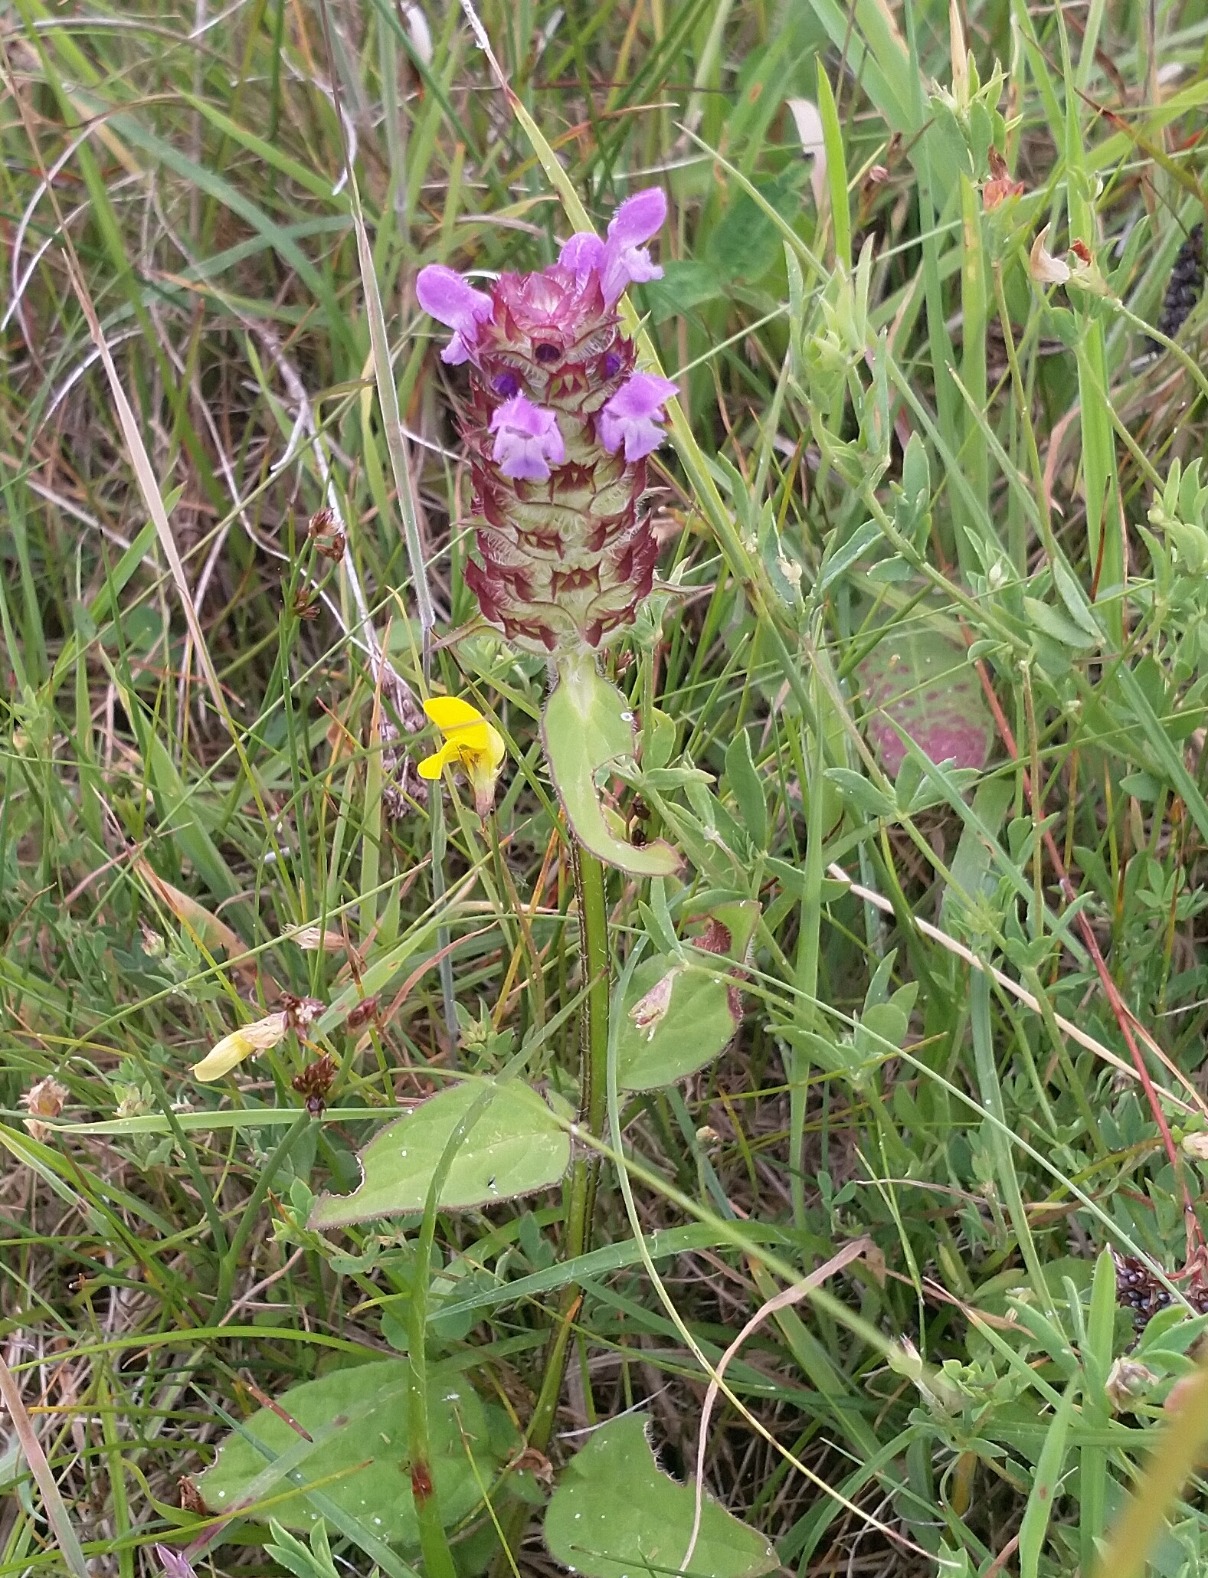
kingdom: Plantae
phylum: Tracheophyta
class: Magnoliopsida
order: Lamiales
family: Lamiaceae
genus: Prunella
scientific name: Prunella vulgaris
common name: Almindelig brunelle
